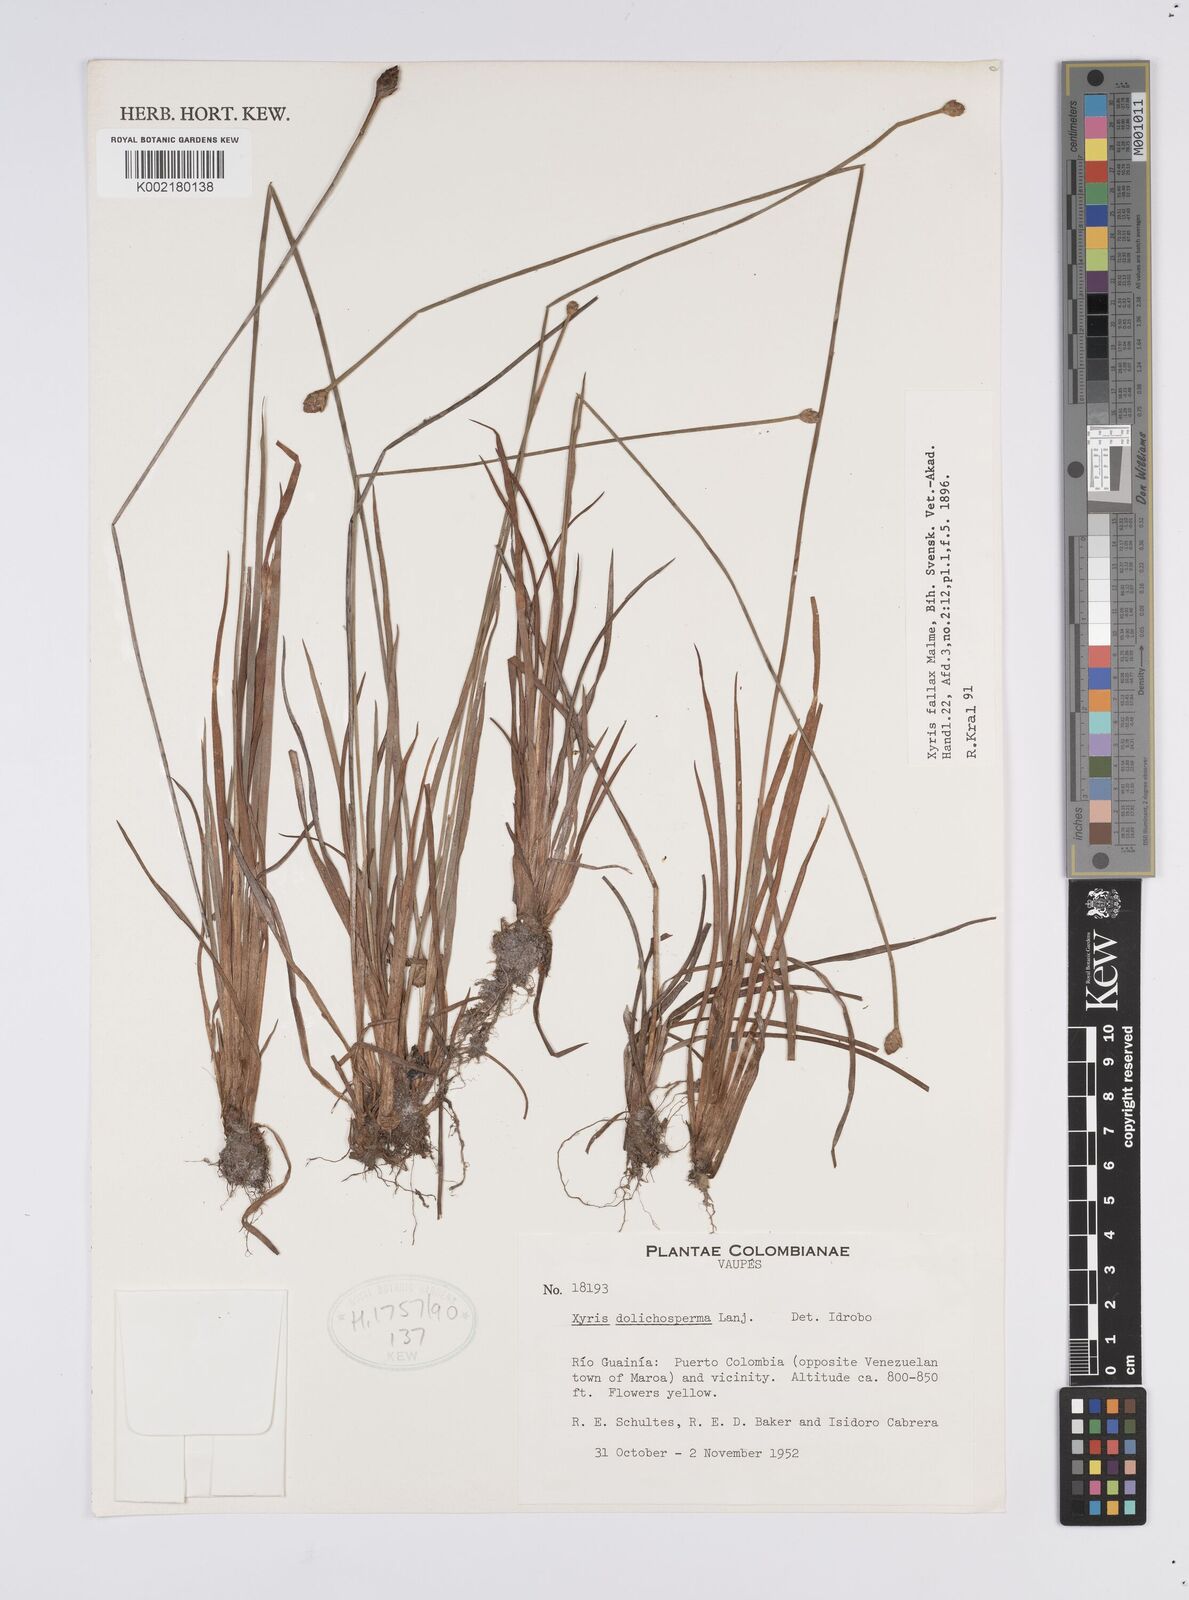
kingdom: Plantae
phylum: Tracheophyta
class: Liliopsida
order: Poales
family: Xyridaceae
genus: Xyris
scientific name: Xyris fallax
